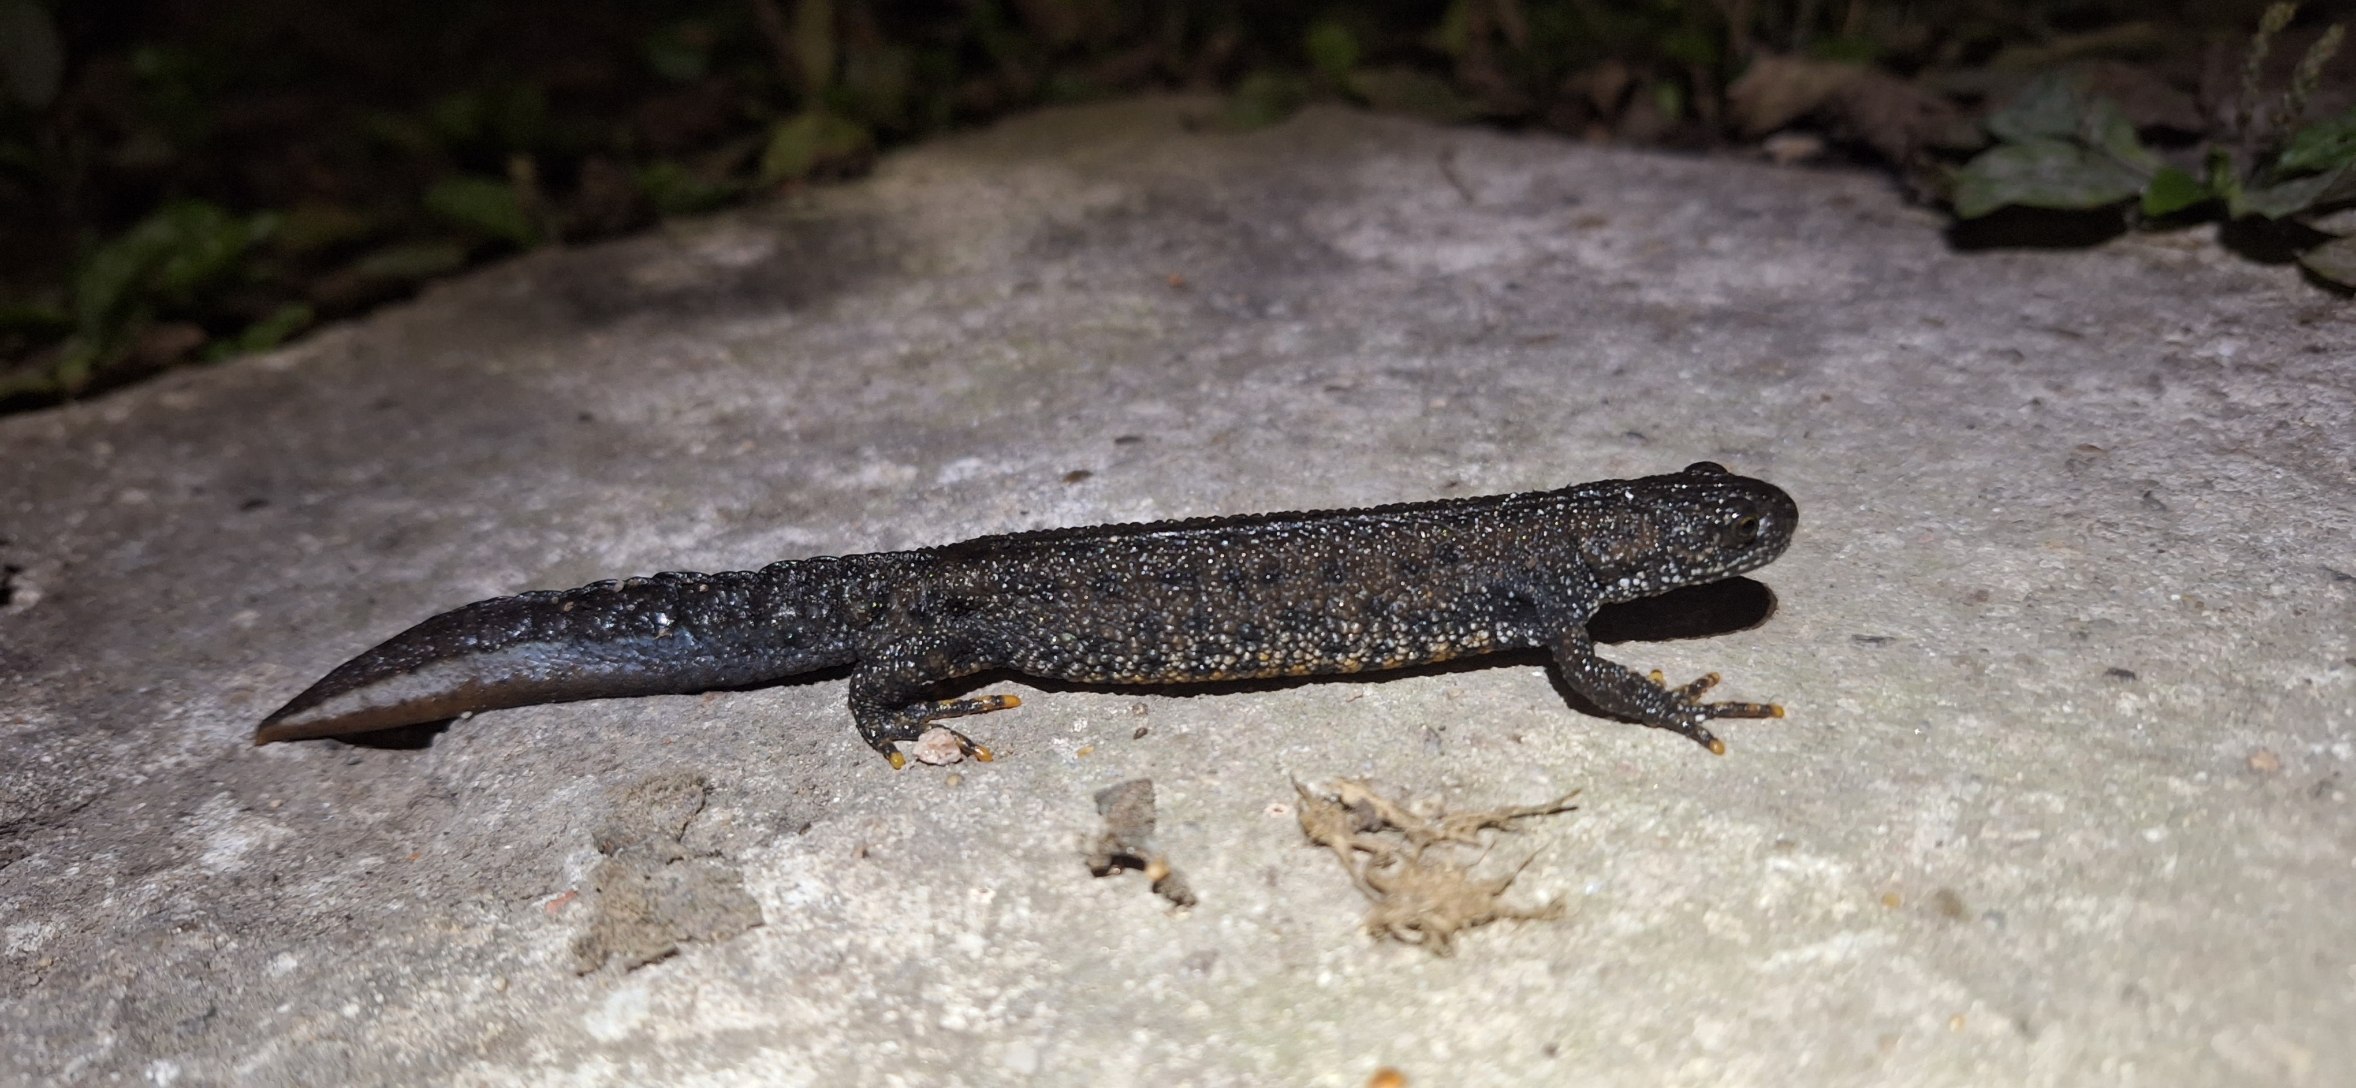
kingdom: Animalia
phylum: Chordata
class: Amphibia
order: Caudata
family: Salamandridae
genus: Triturus
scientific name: Triturus cristatus
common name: Stor vandsalamander
